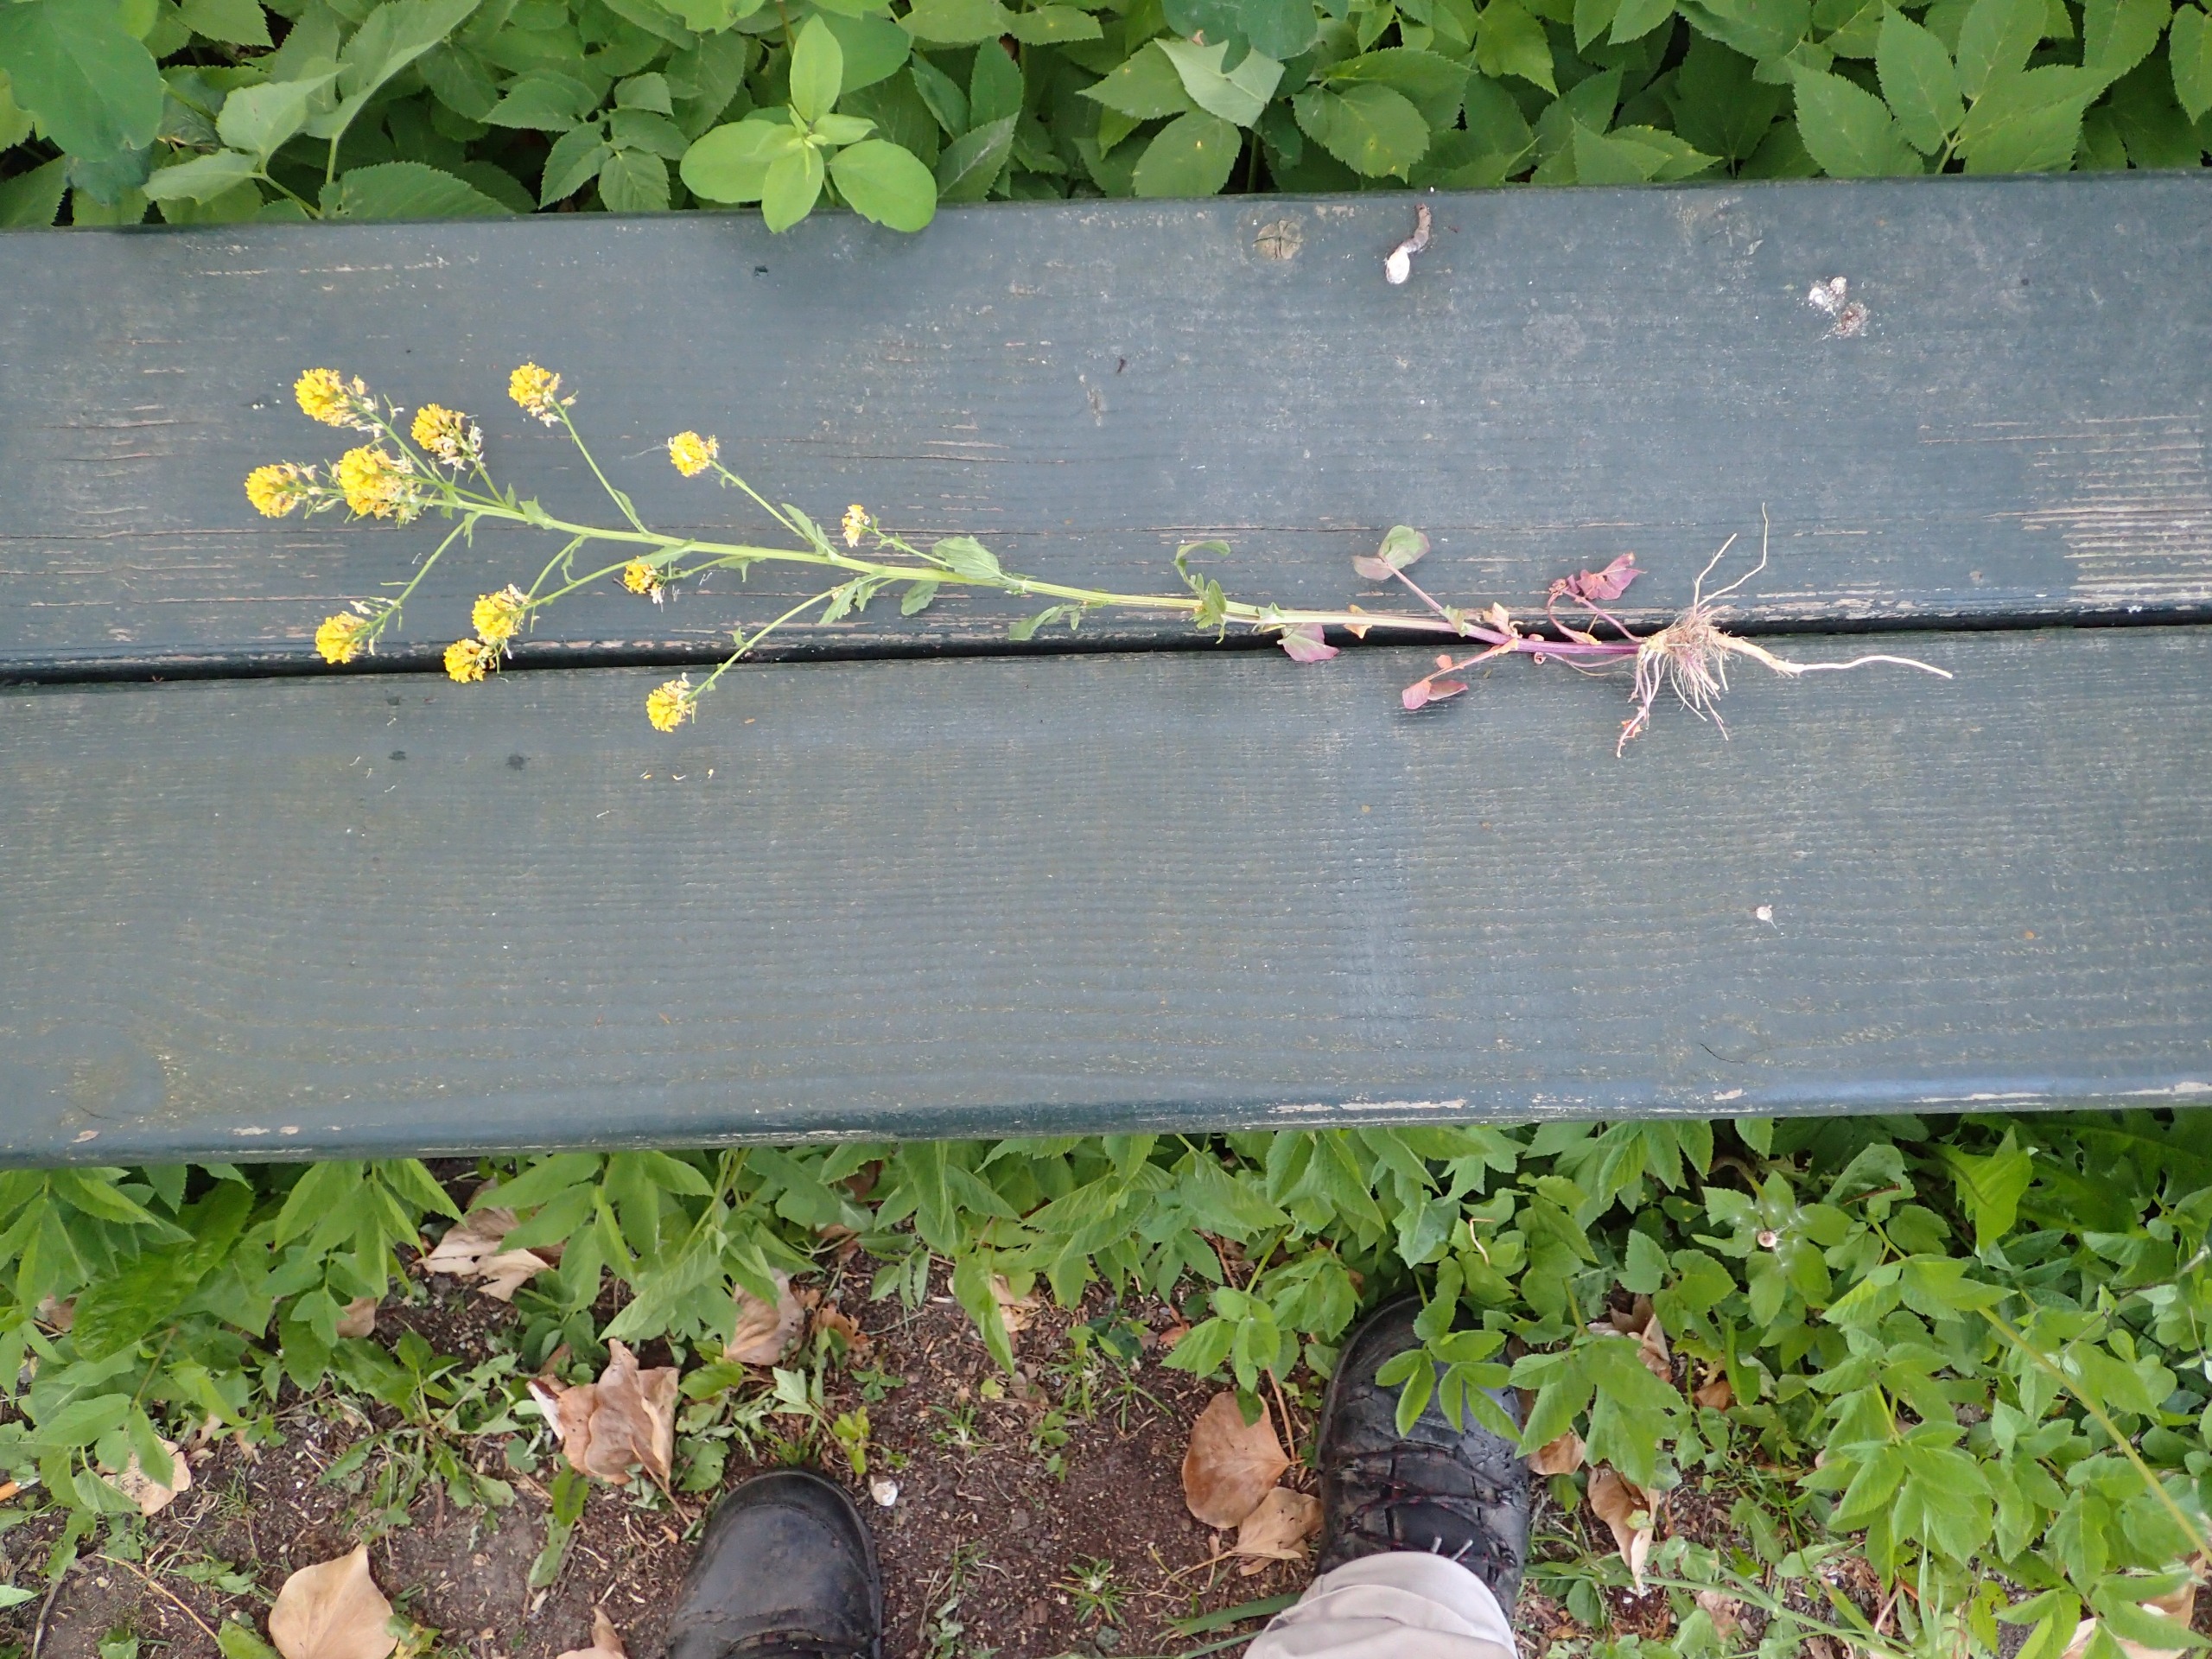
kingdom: Plantae
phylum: Tracheophyta
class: Magnoliopsida
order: Brassicales
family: Brassicaceae
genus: Barbarea
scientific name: Barbarea vulgaris
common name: Udspærret vinterkarse
